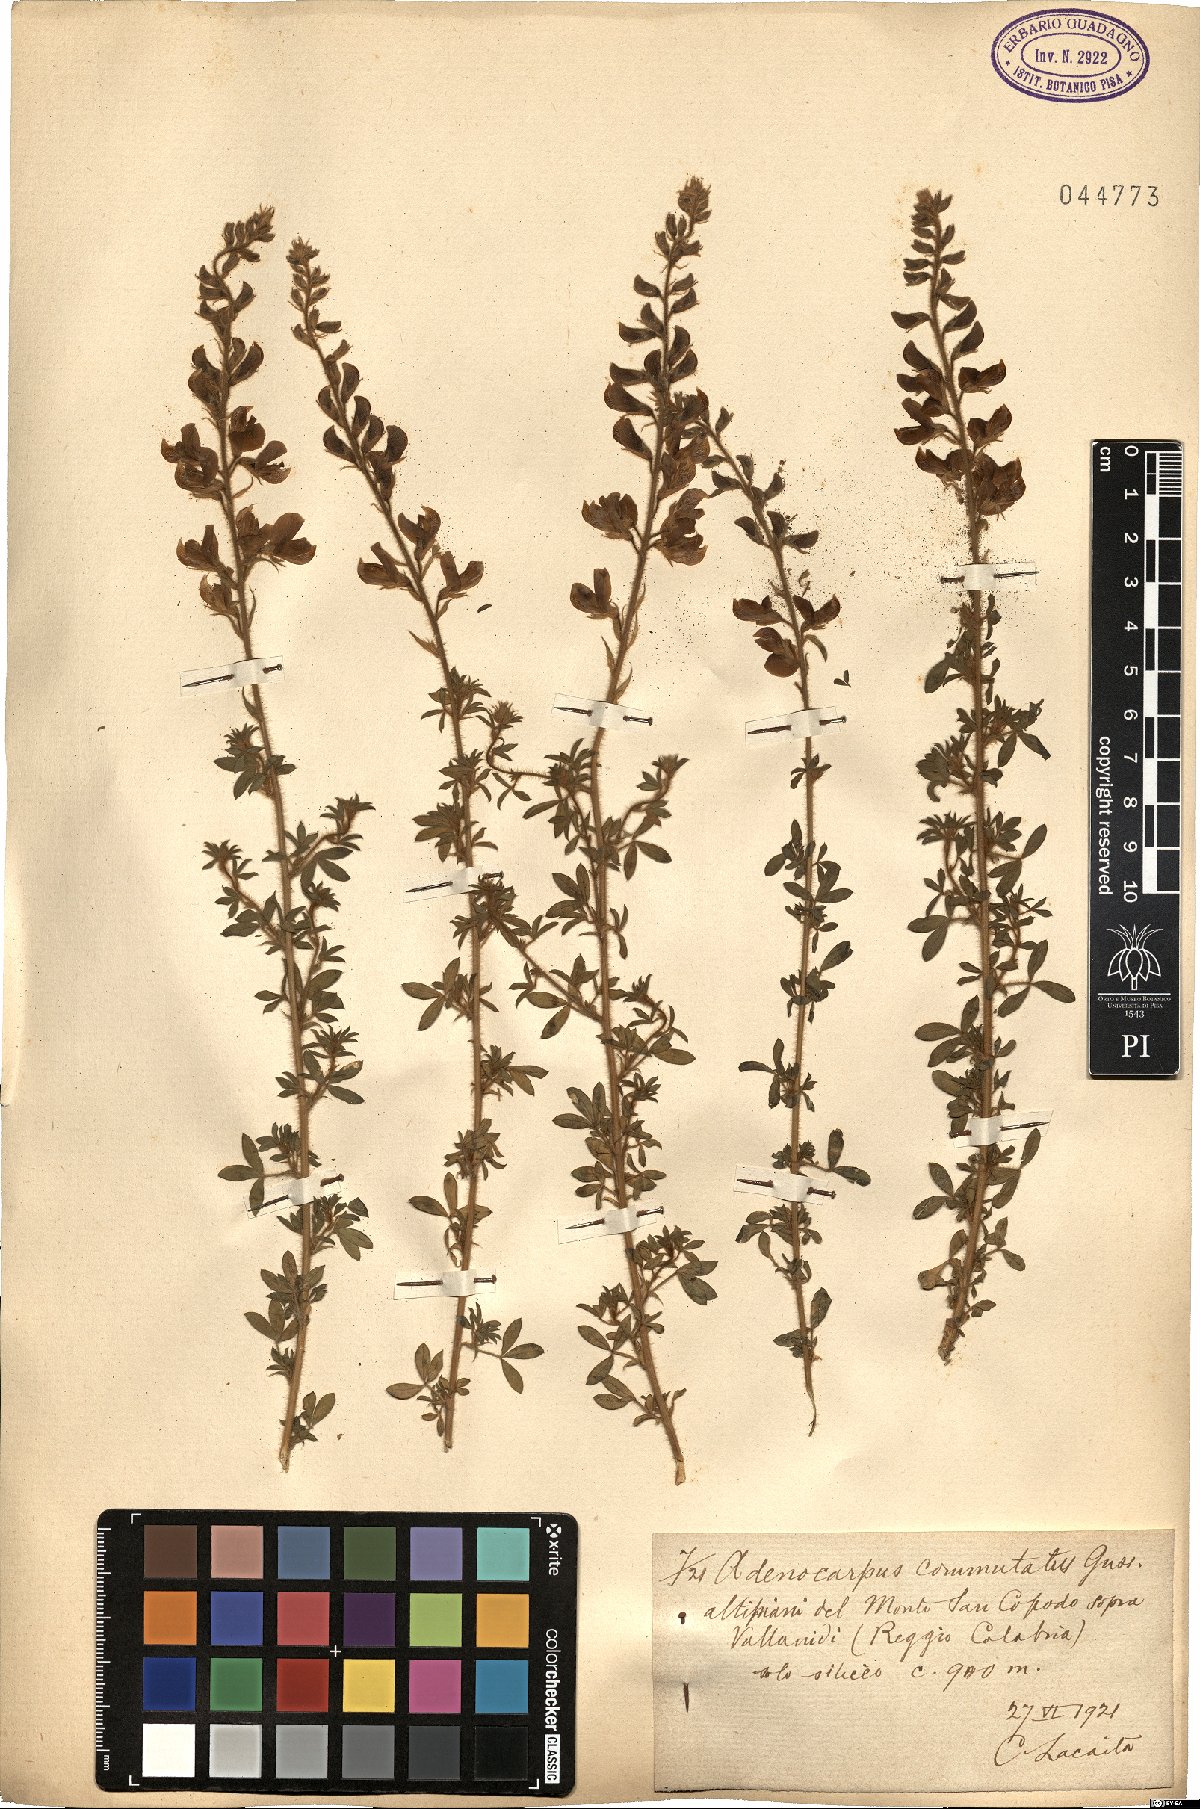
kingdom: Plantae
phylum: Tracheophyta
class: Magnoliopsida
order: Fabales
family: Fabaceae
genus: Adenocarpus
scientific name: Adenocarpus commutatus
